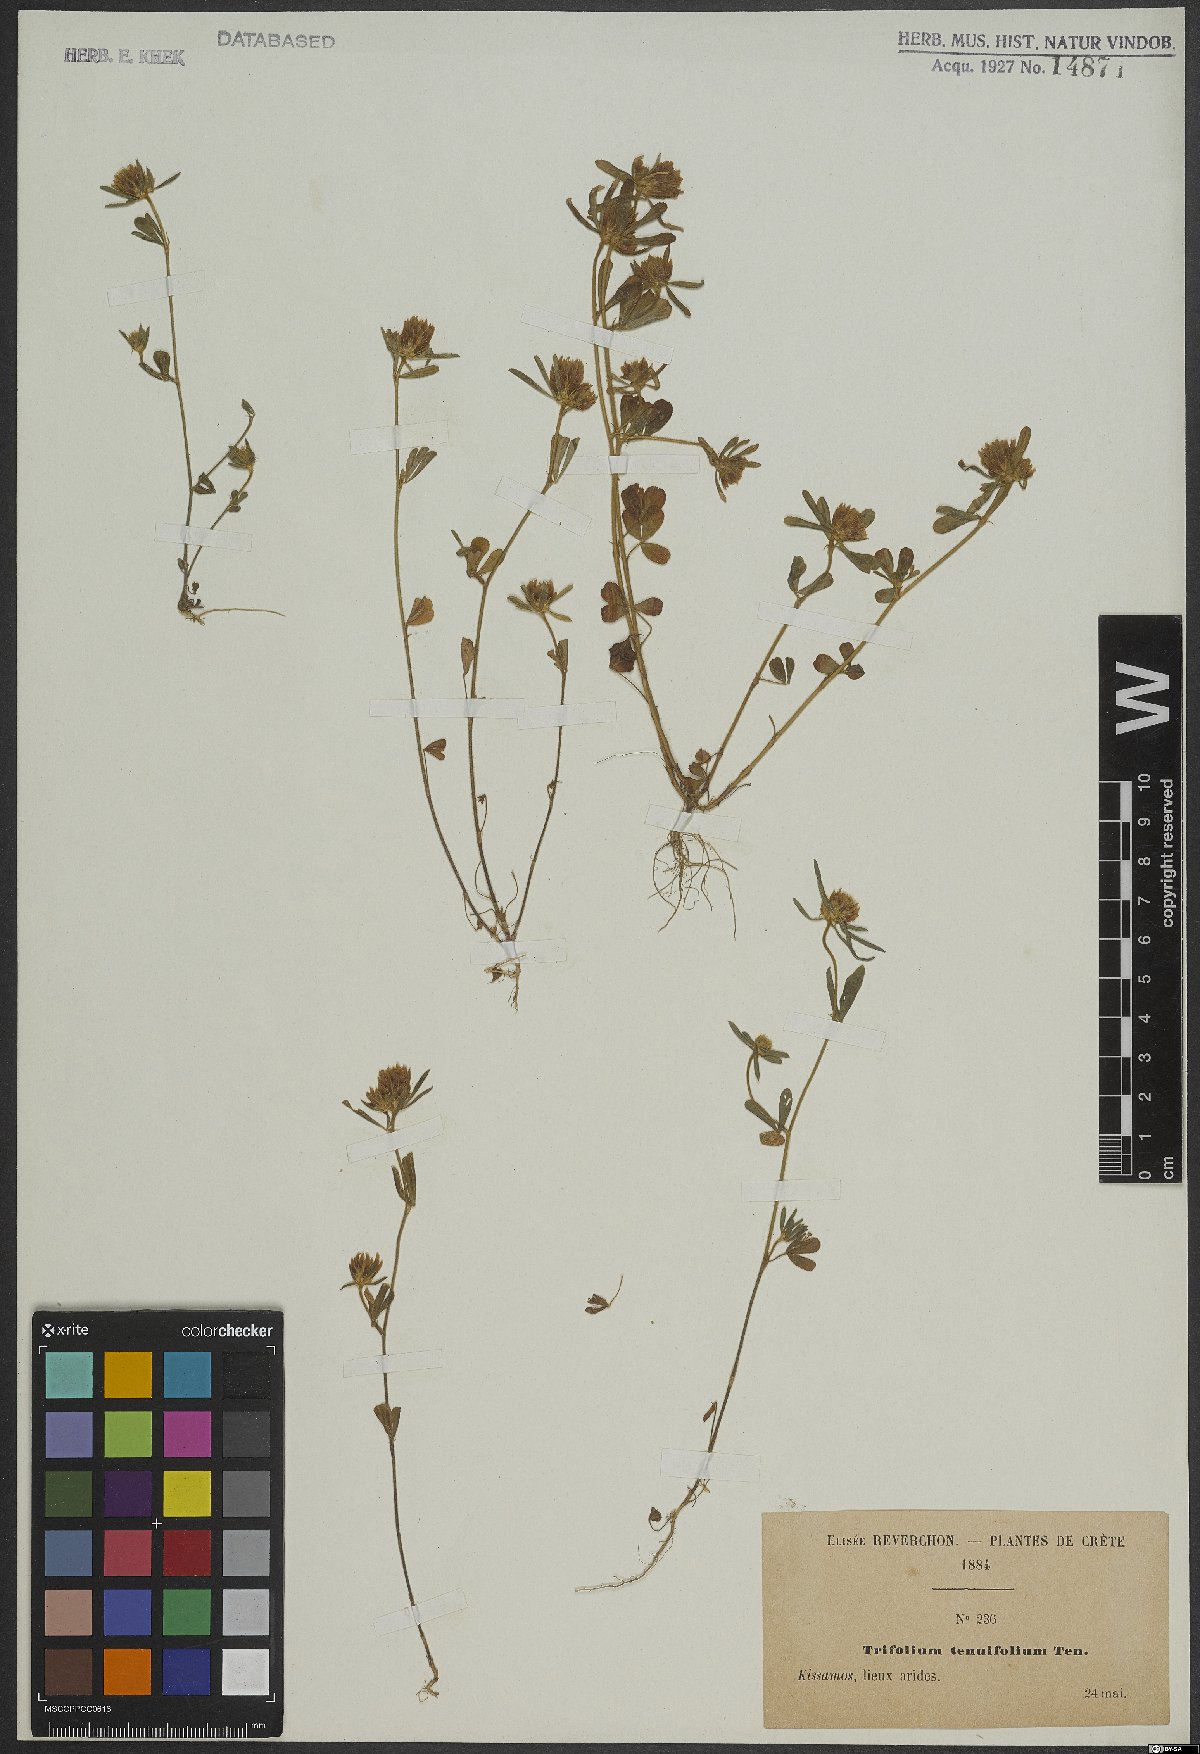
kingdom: Plantae
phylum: Tracheophyta
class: Magnoliopsida
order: Fabales
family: Fabaceae
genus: Trifolium
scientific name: Trifolium tenuifolium
